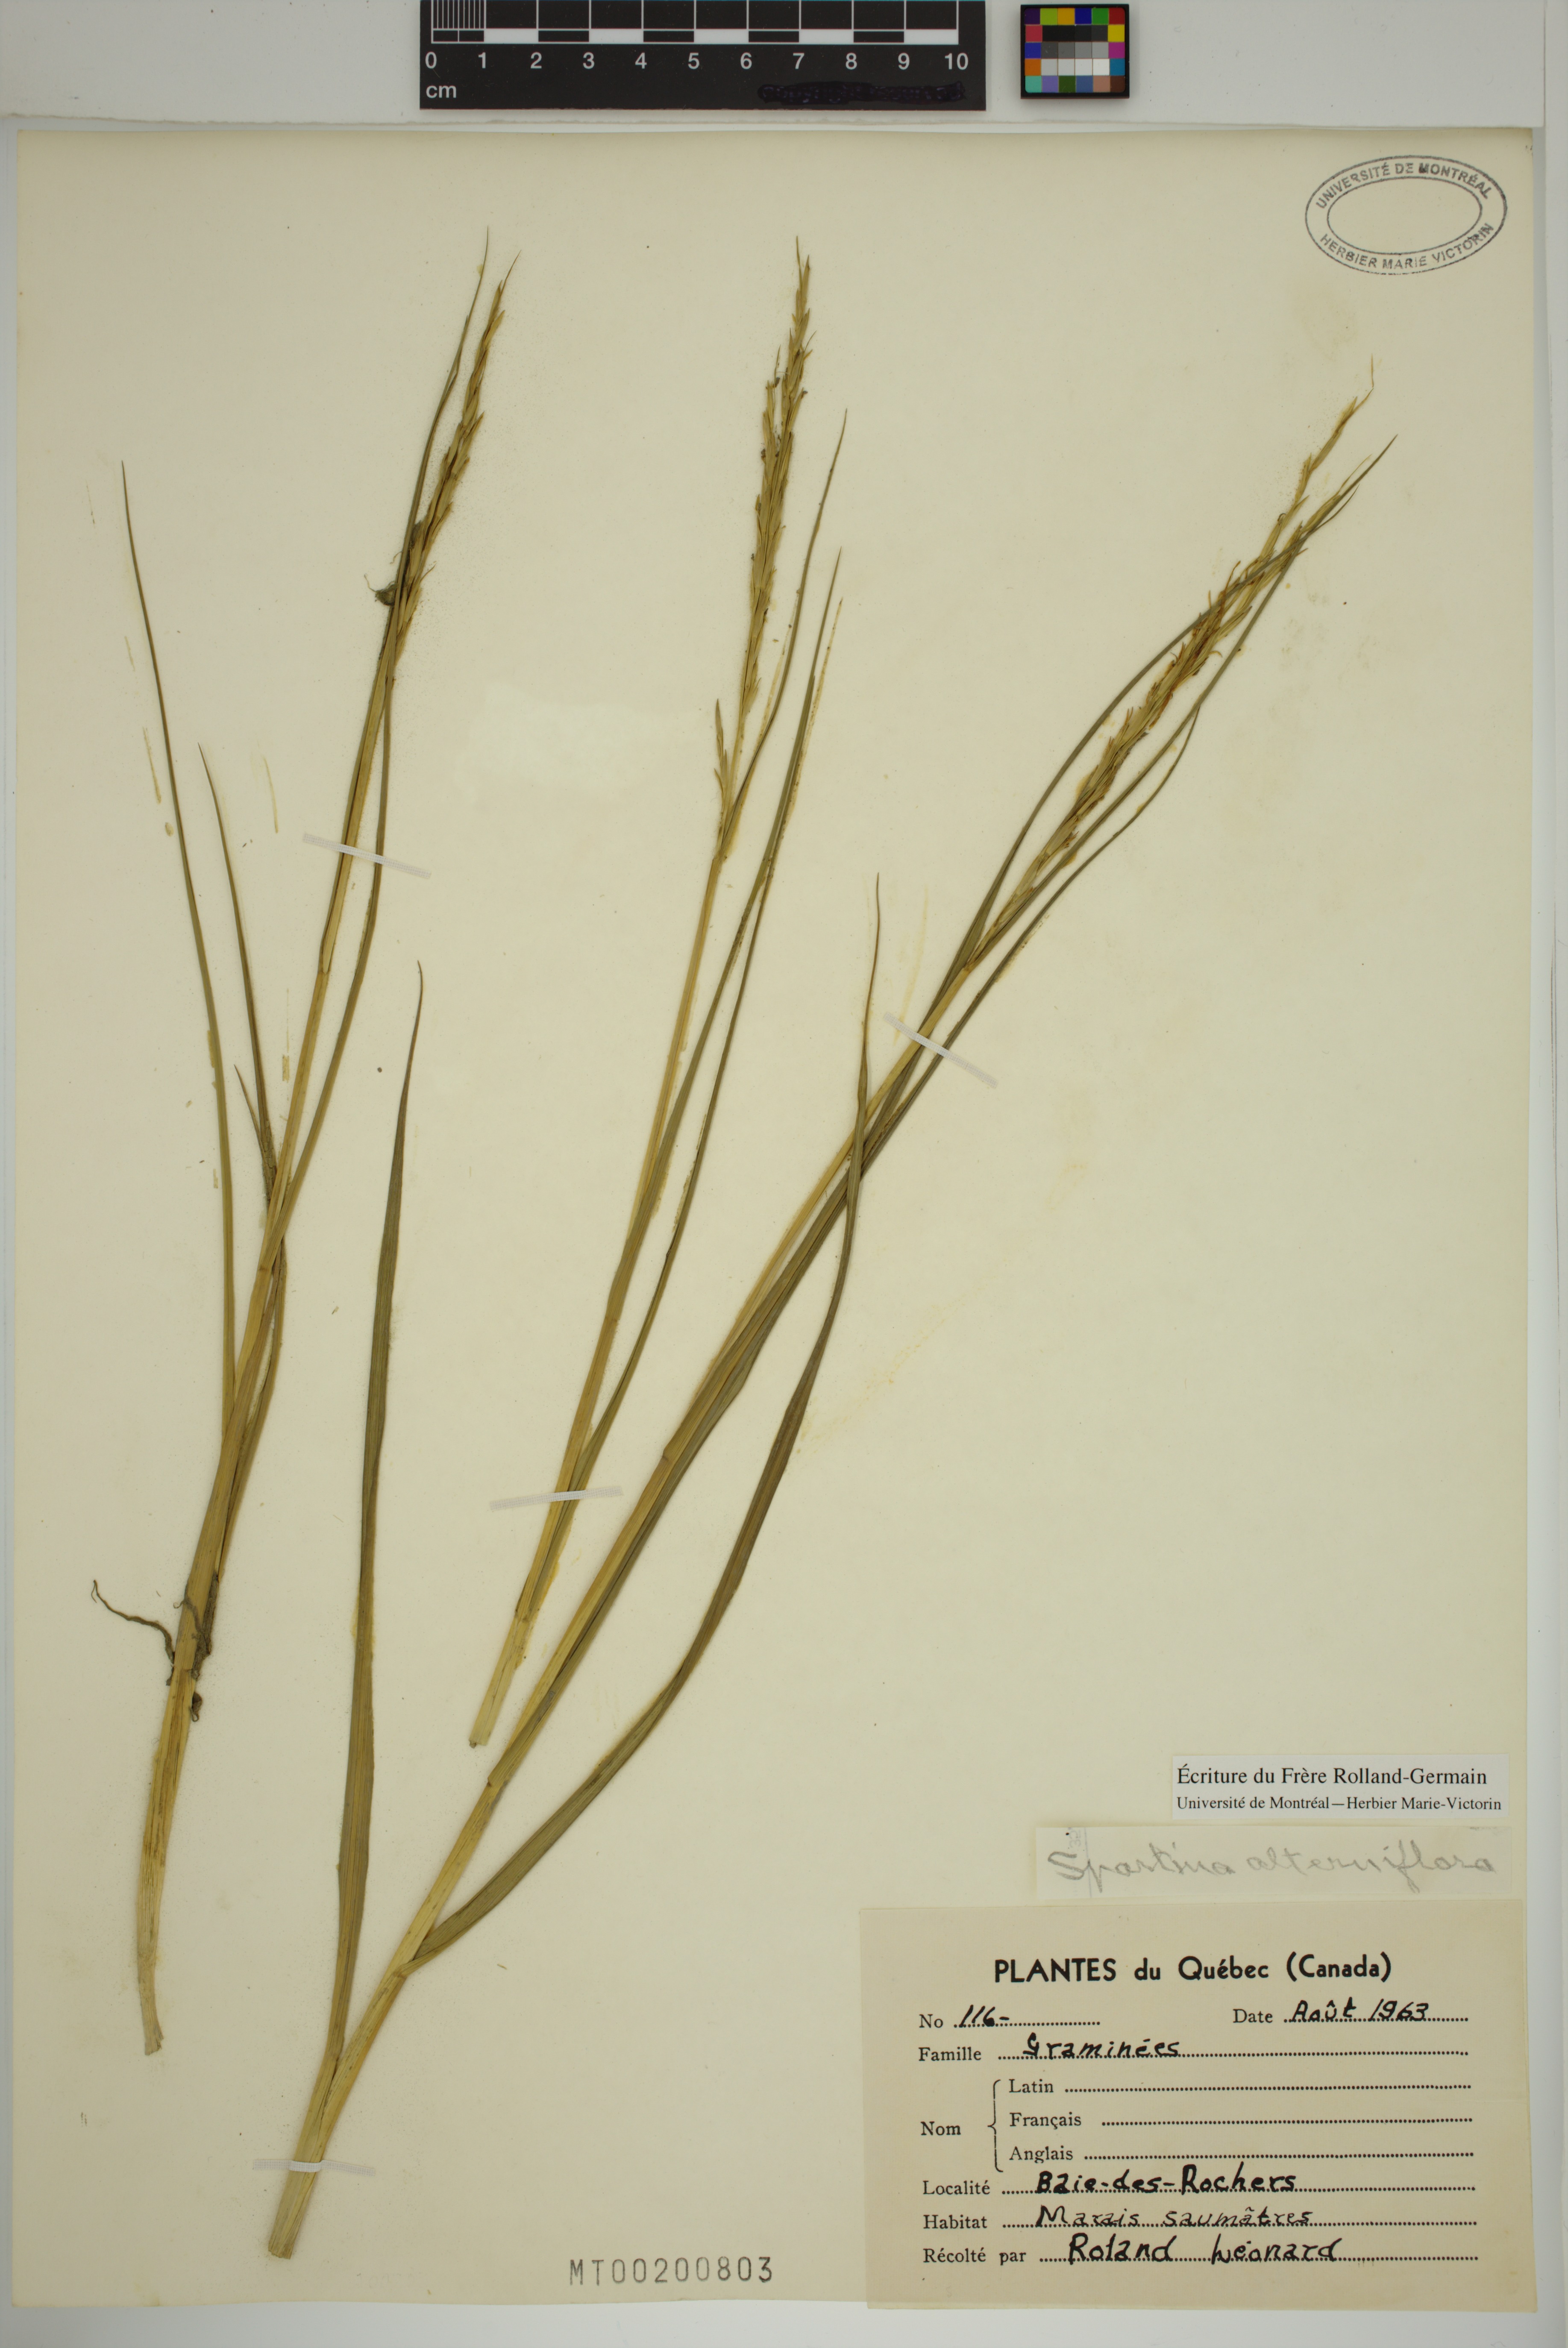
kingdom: Plantae
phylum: Tracheophyta
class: Liliopsida
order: Poales
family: Poaceae
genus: Sporobolus
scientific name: Sporobolus alterniflorus
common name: Atlantic cordgrass
